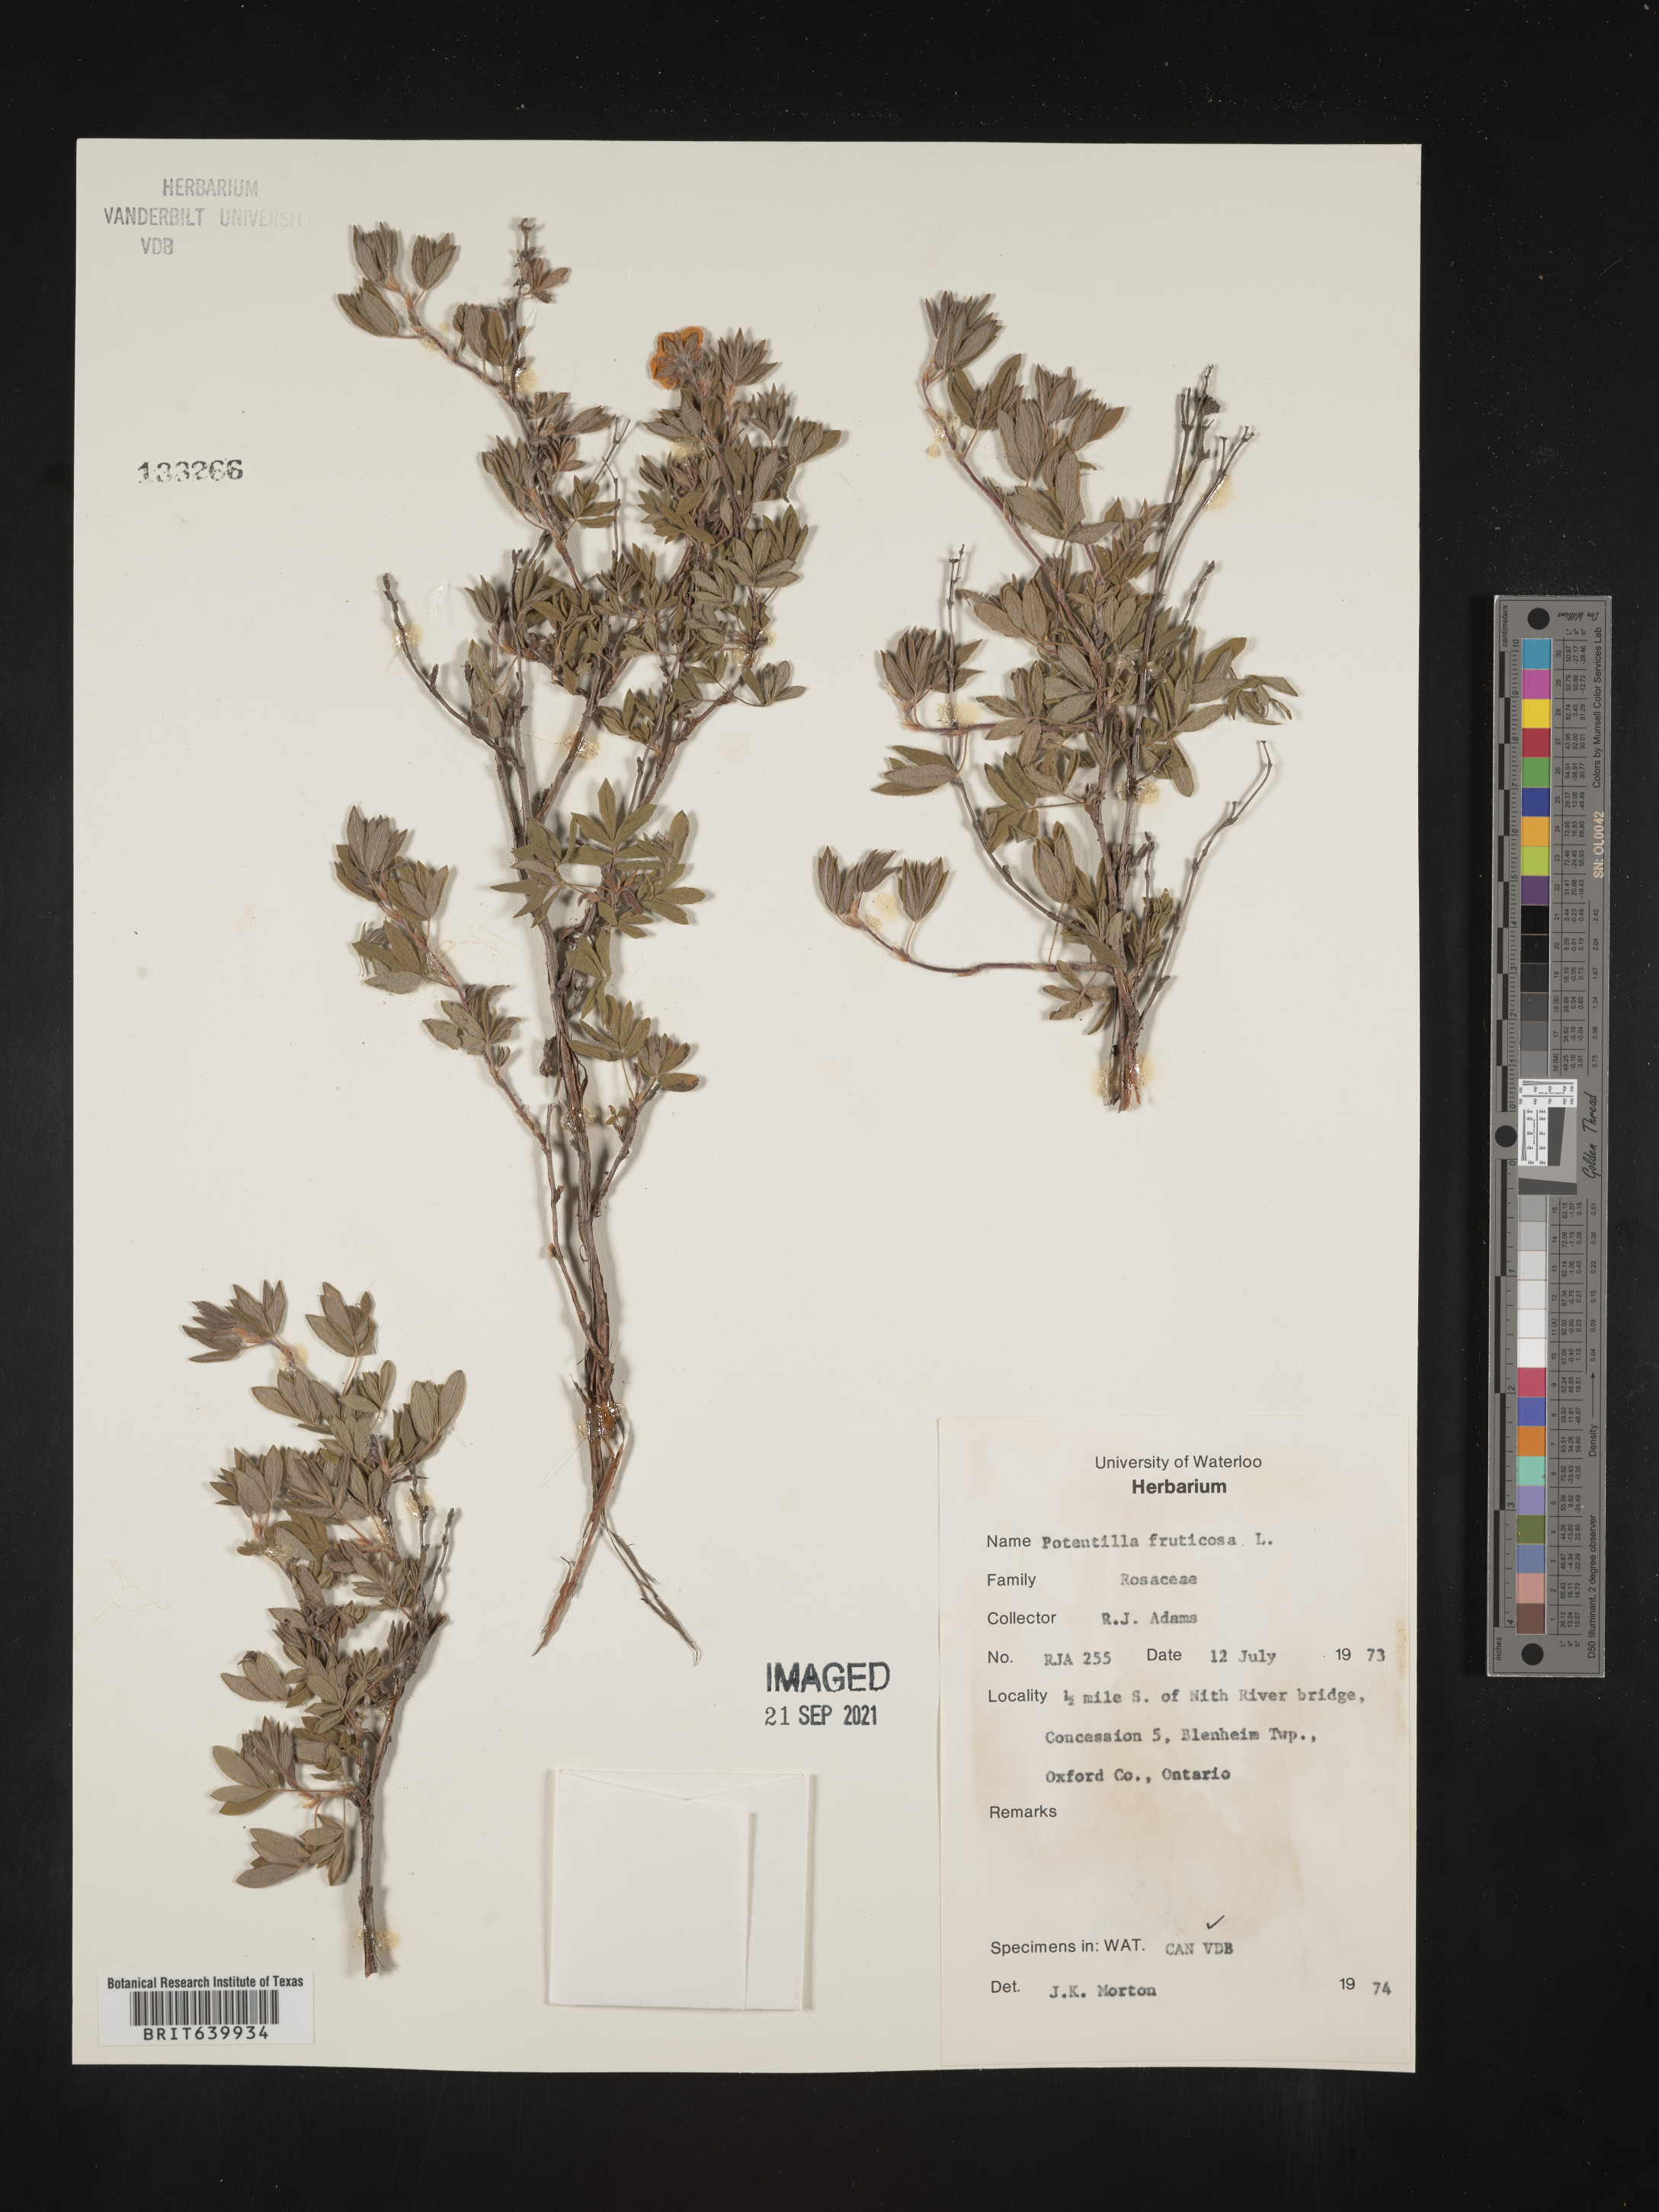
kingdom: Plantae
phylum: Tracheophyta
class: Magnoliopsida
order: Rosales
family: Rosaceae
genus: Potentilla
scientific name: Potentilla
